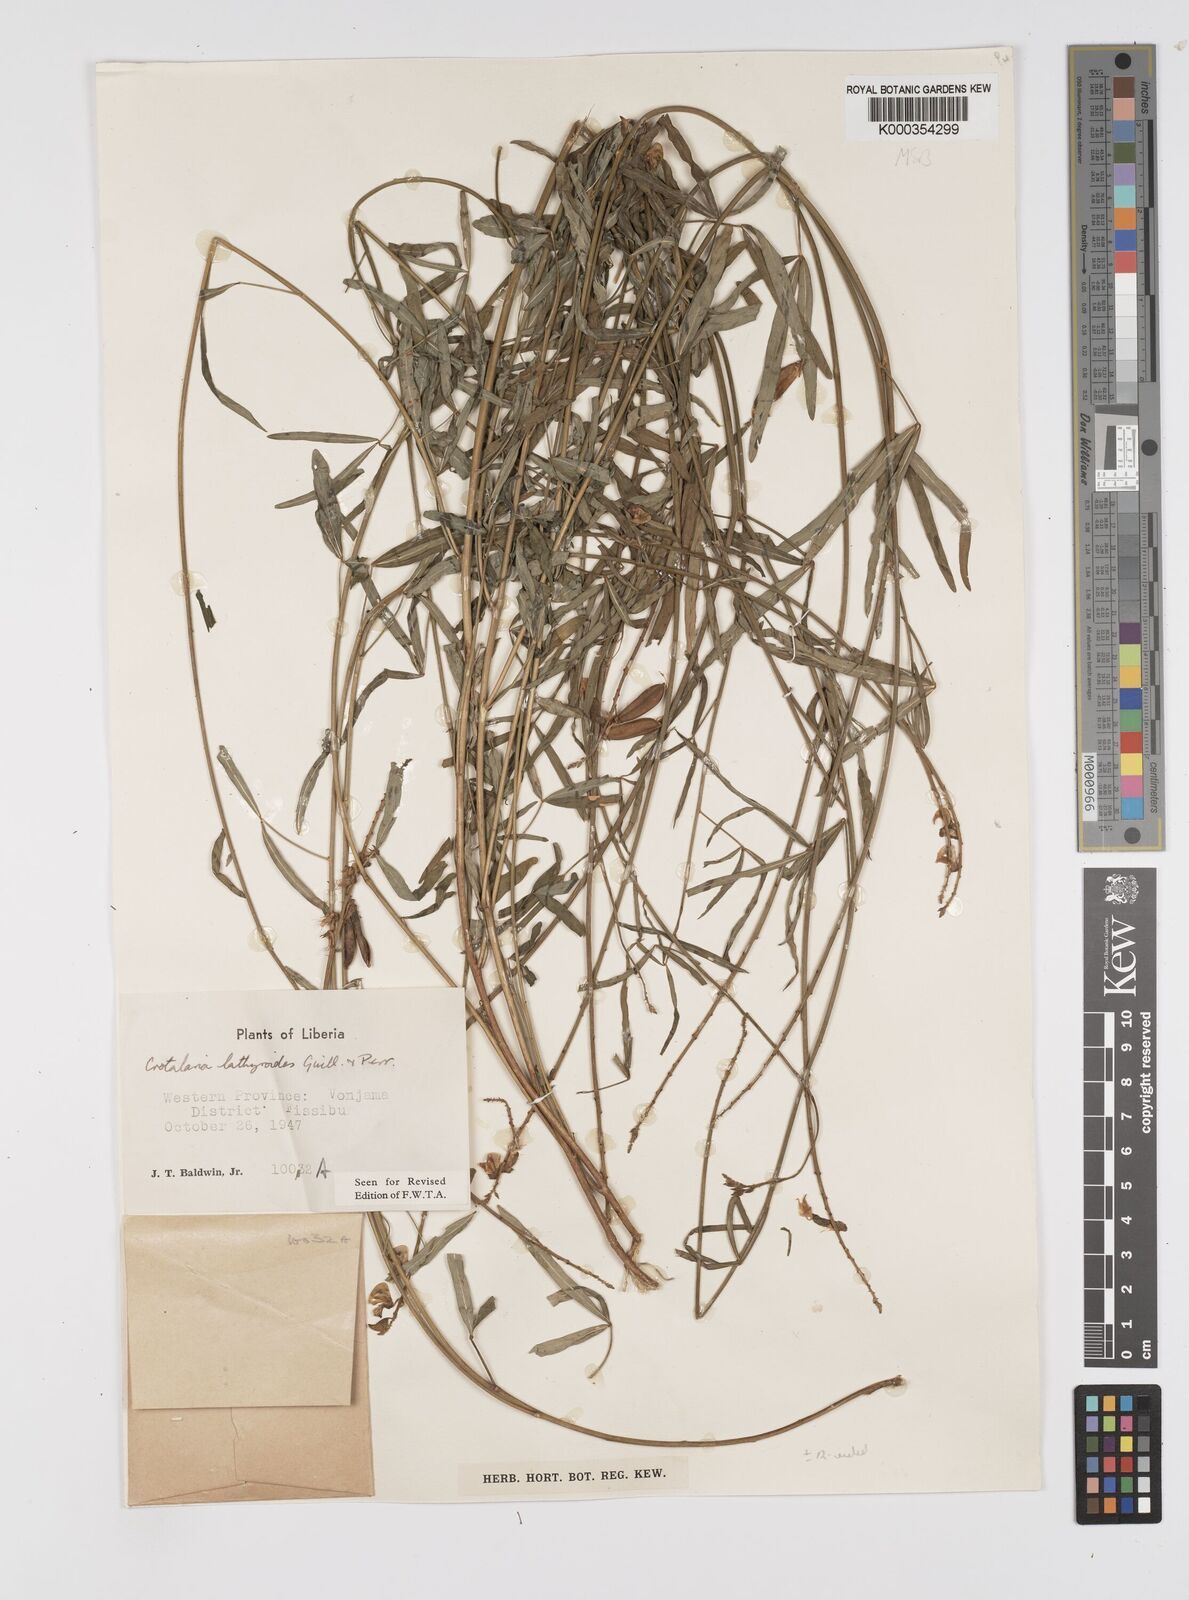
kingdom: Plantae
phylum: Tracheophyta
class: Magnoliopsida
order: Fabales
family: Fabaceae
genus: Crotalaria
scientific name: Crotalaria lathyroides
